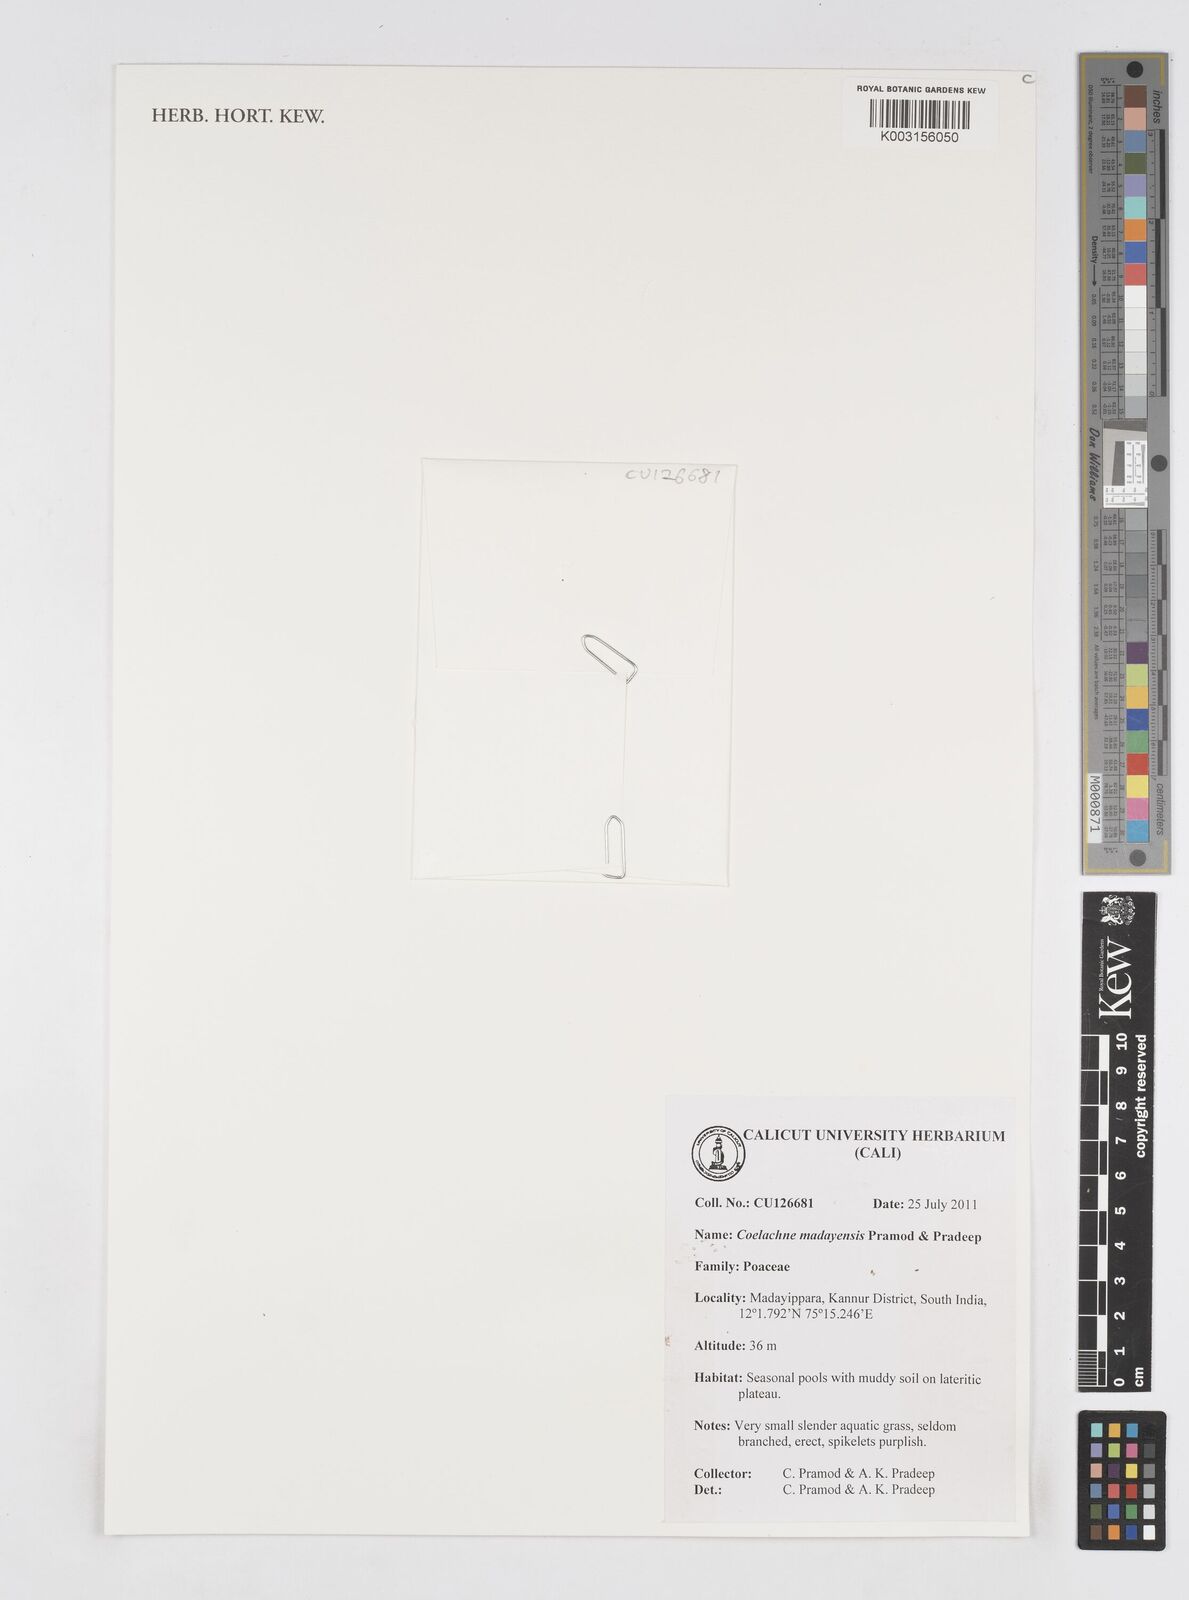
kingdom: Plantae
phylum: Tracheophyta
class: Liliopsida
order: Poales
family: Poaceae
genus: Coelachne
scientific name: Coelachne madayensis
